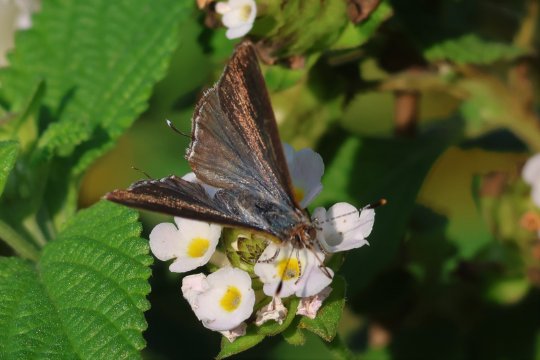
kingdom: Animalia
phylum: Arthropoda
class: Insecta
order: Lepidoptera
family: Lycaenidae
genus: Chlorostrymon
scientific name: Chlorostrymon simaethis
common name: Silver-banded Hairstreak
